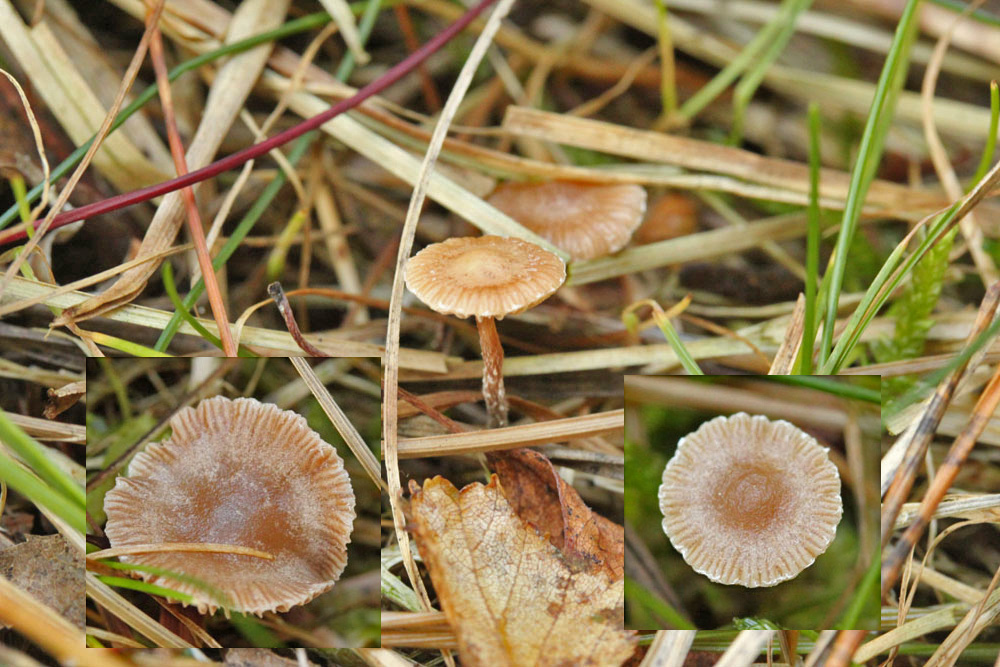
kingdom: Fungi
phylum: Basidiomycota
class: Agaricomycetes
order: Agaricales
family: Strophariaceae
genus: Deconica
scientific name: Deconica crobula
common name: træflis-stråhat
